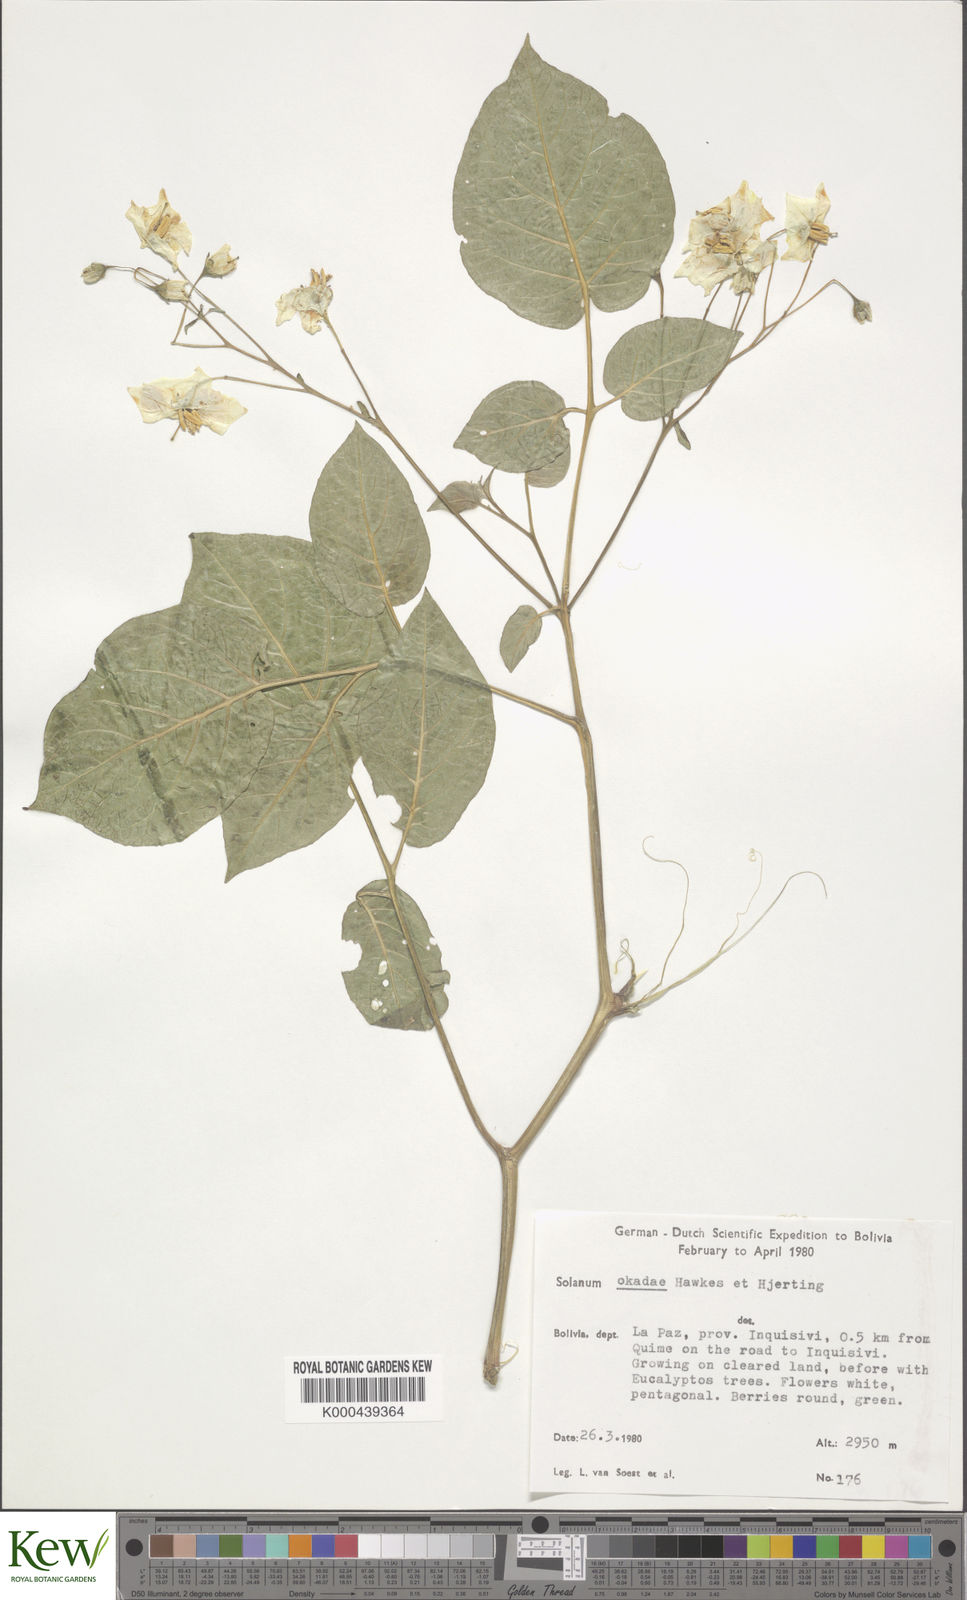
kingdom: Plantae
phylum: Tracheophyta
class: Magnoliopsida
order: Solanales
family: Solanaceae
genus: Solanum
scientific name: Solanum okadae
